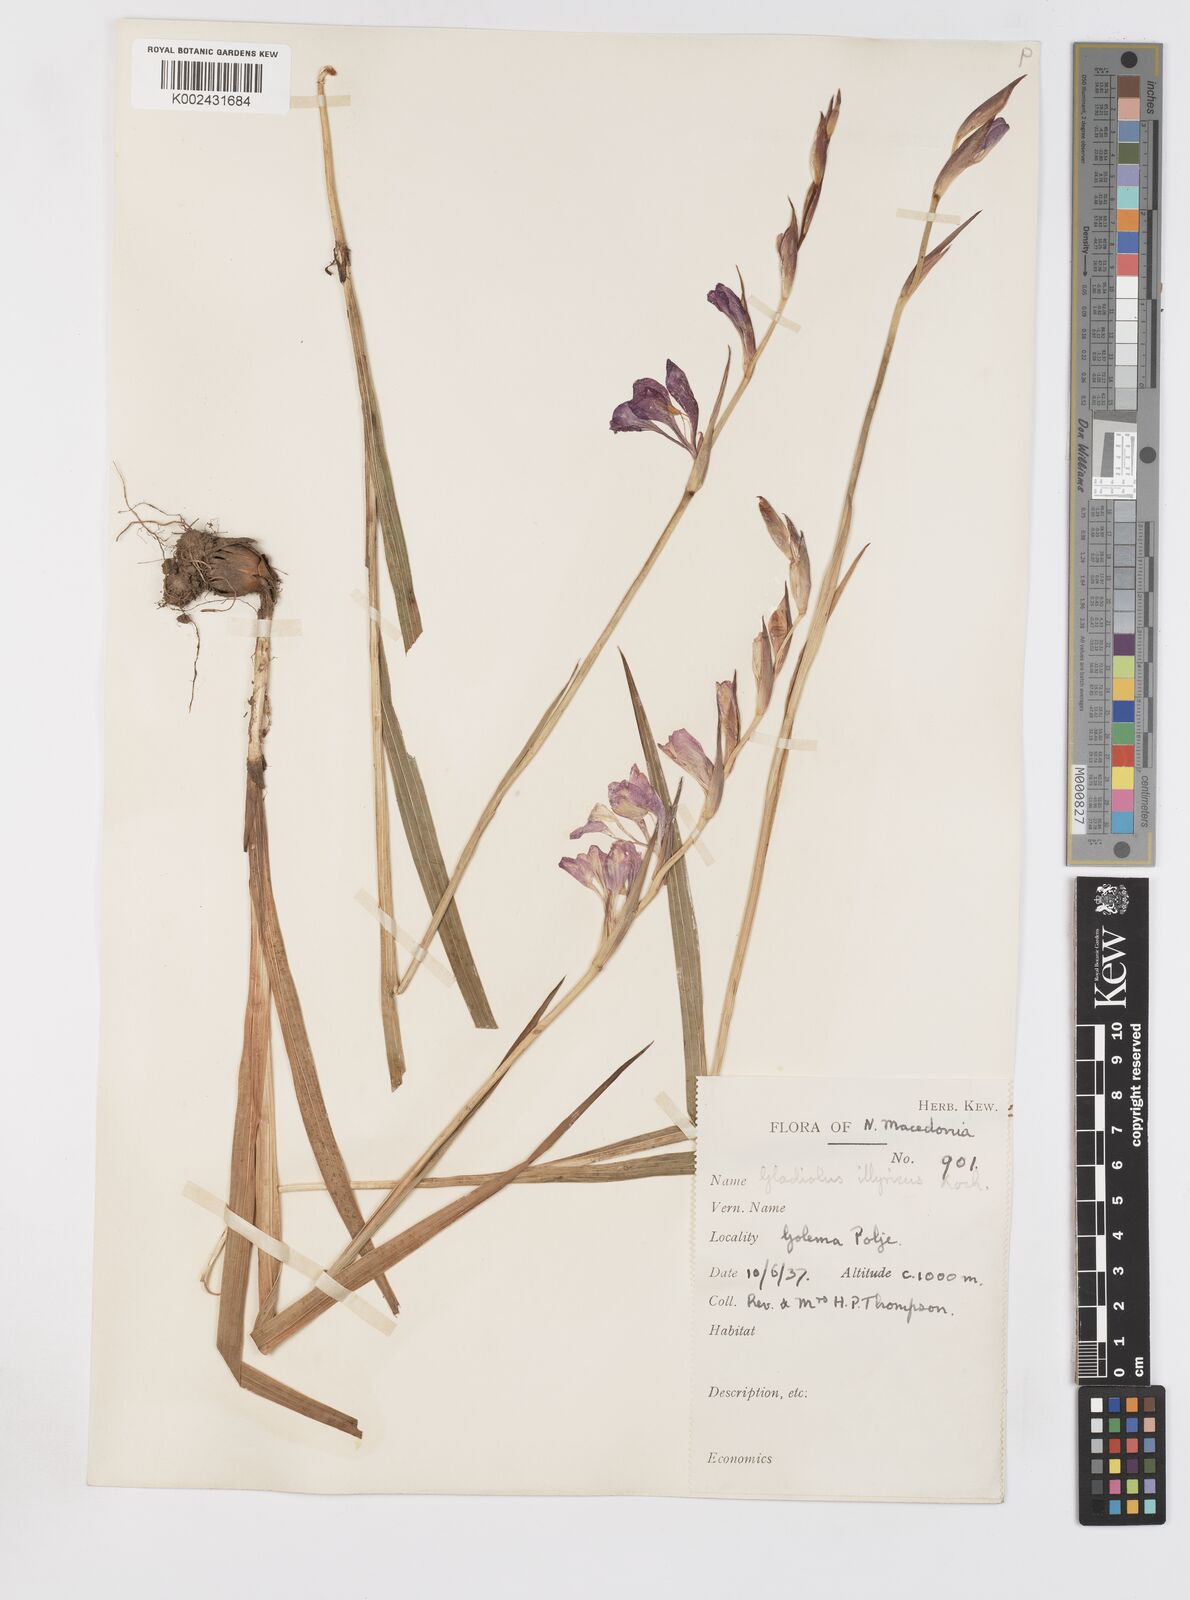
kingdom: Plantae
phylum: Tracheophyta
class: Liliopsida
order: Asparagales
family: Iridaceae
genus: Gladiolus
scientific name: Gladiolus illyricus
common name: Wild gladiolus
